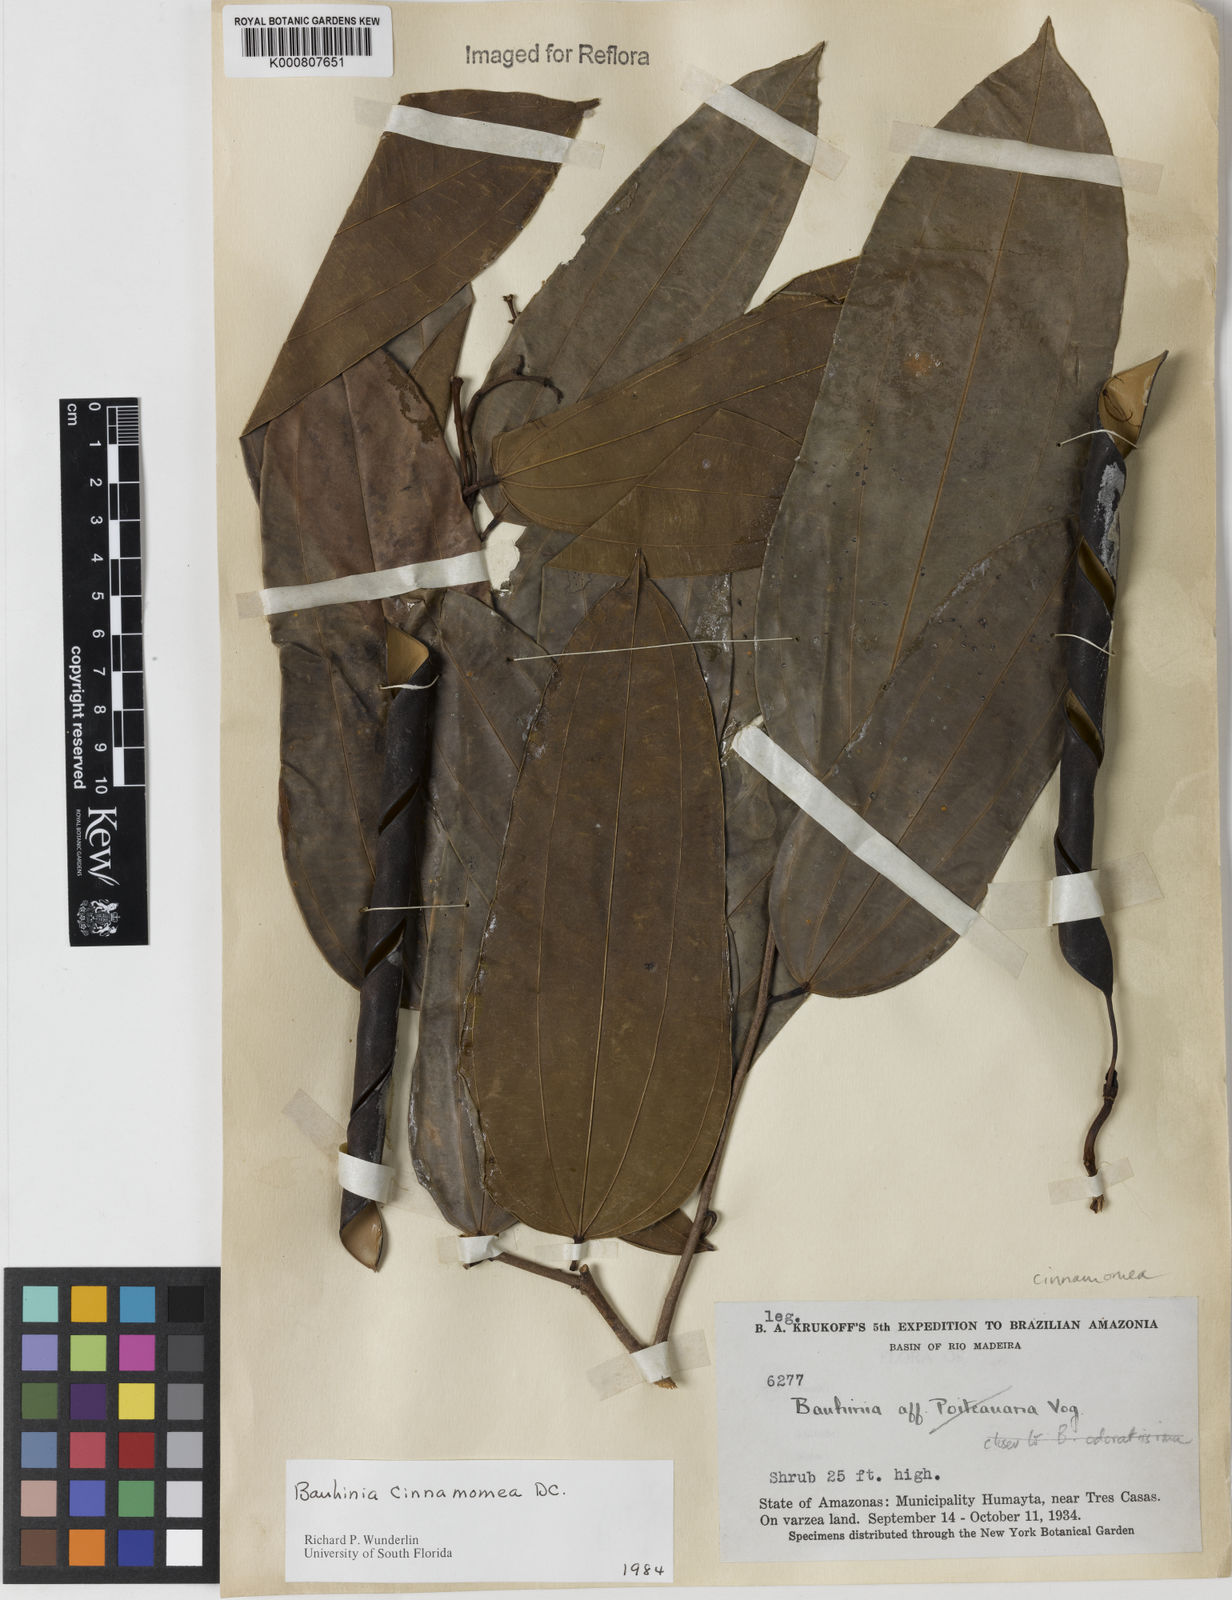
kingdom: Plantae
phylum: Tracheophyta
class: Magnoliopsida
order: Fabales
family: Fabaceae
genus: Bauhinia
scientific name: Bauhinia cinnamomea
